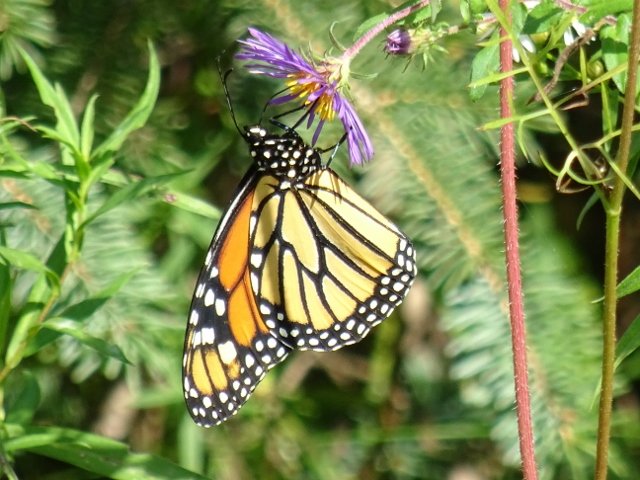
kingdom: Animalia
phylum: Arthropoda
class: Insecta
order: Lepidoptera
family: Nymphalidae
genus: Danaus
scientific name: Danaus plexippus
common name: Monarch
